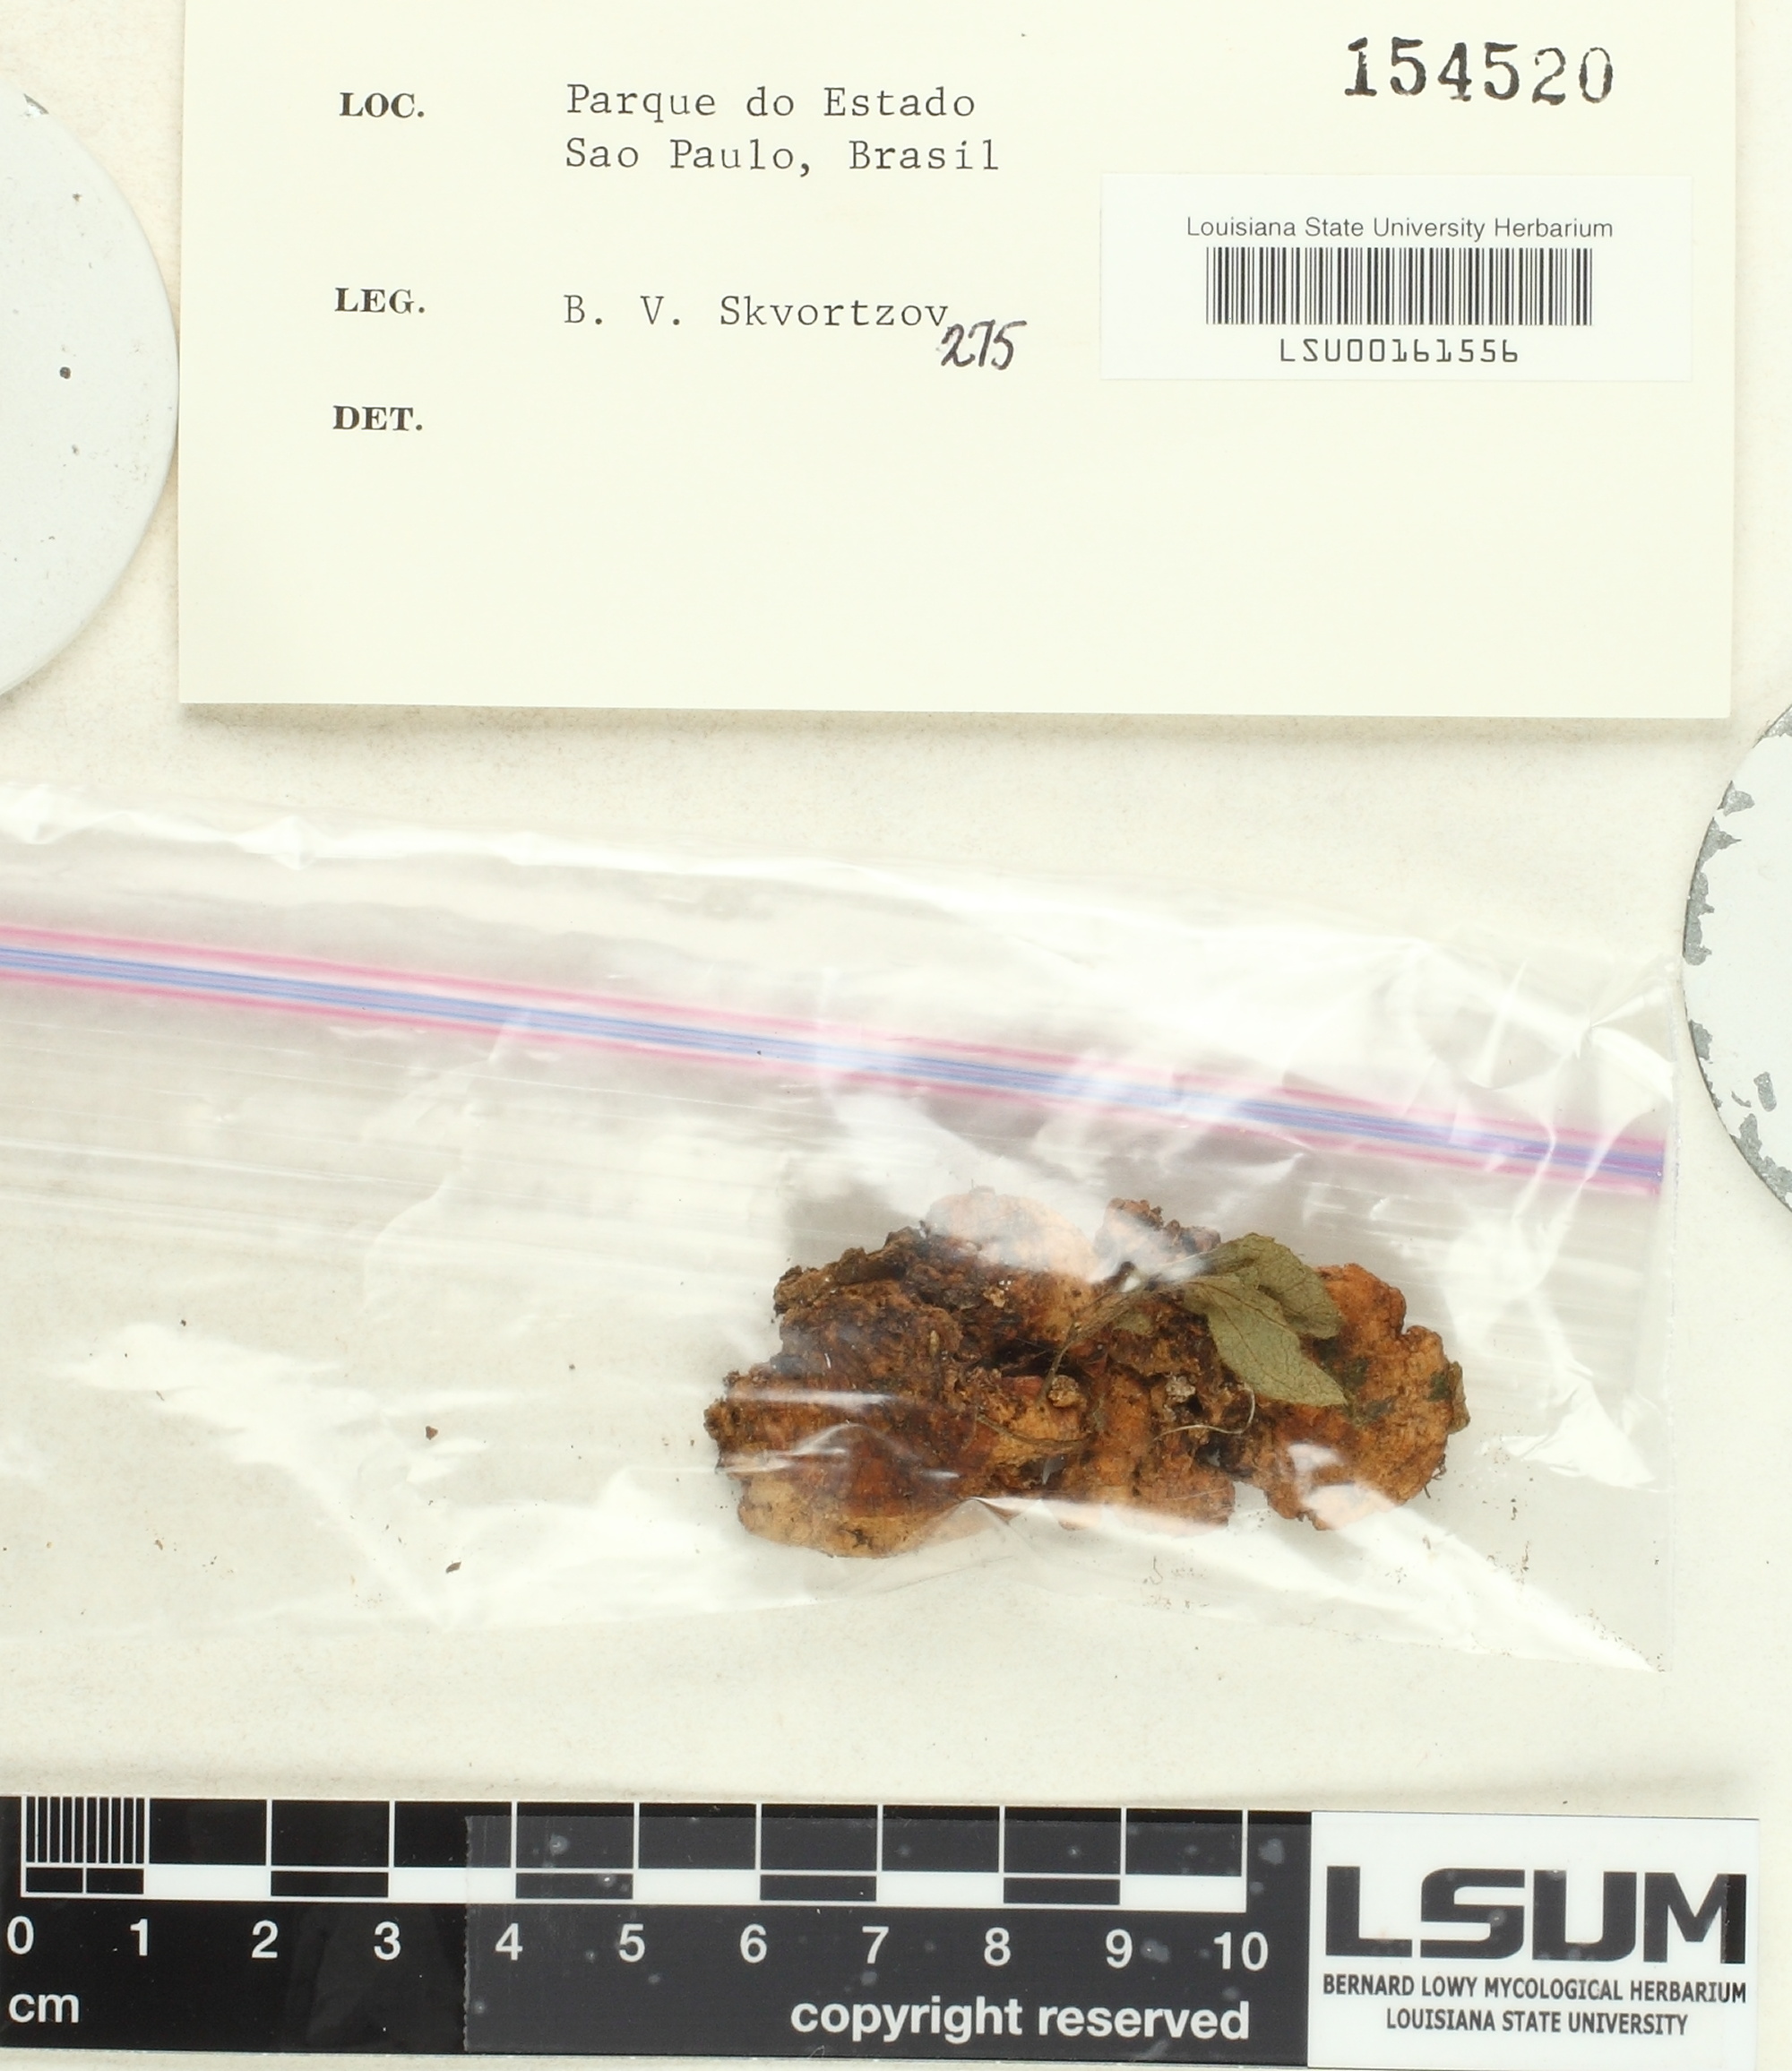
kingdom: Fungi
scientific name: Fungi
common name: Fungi
